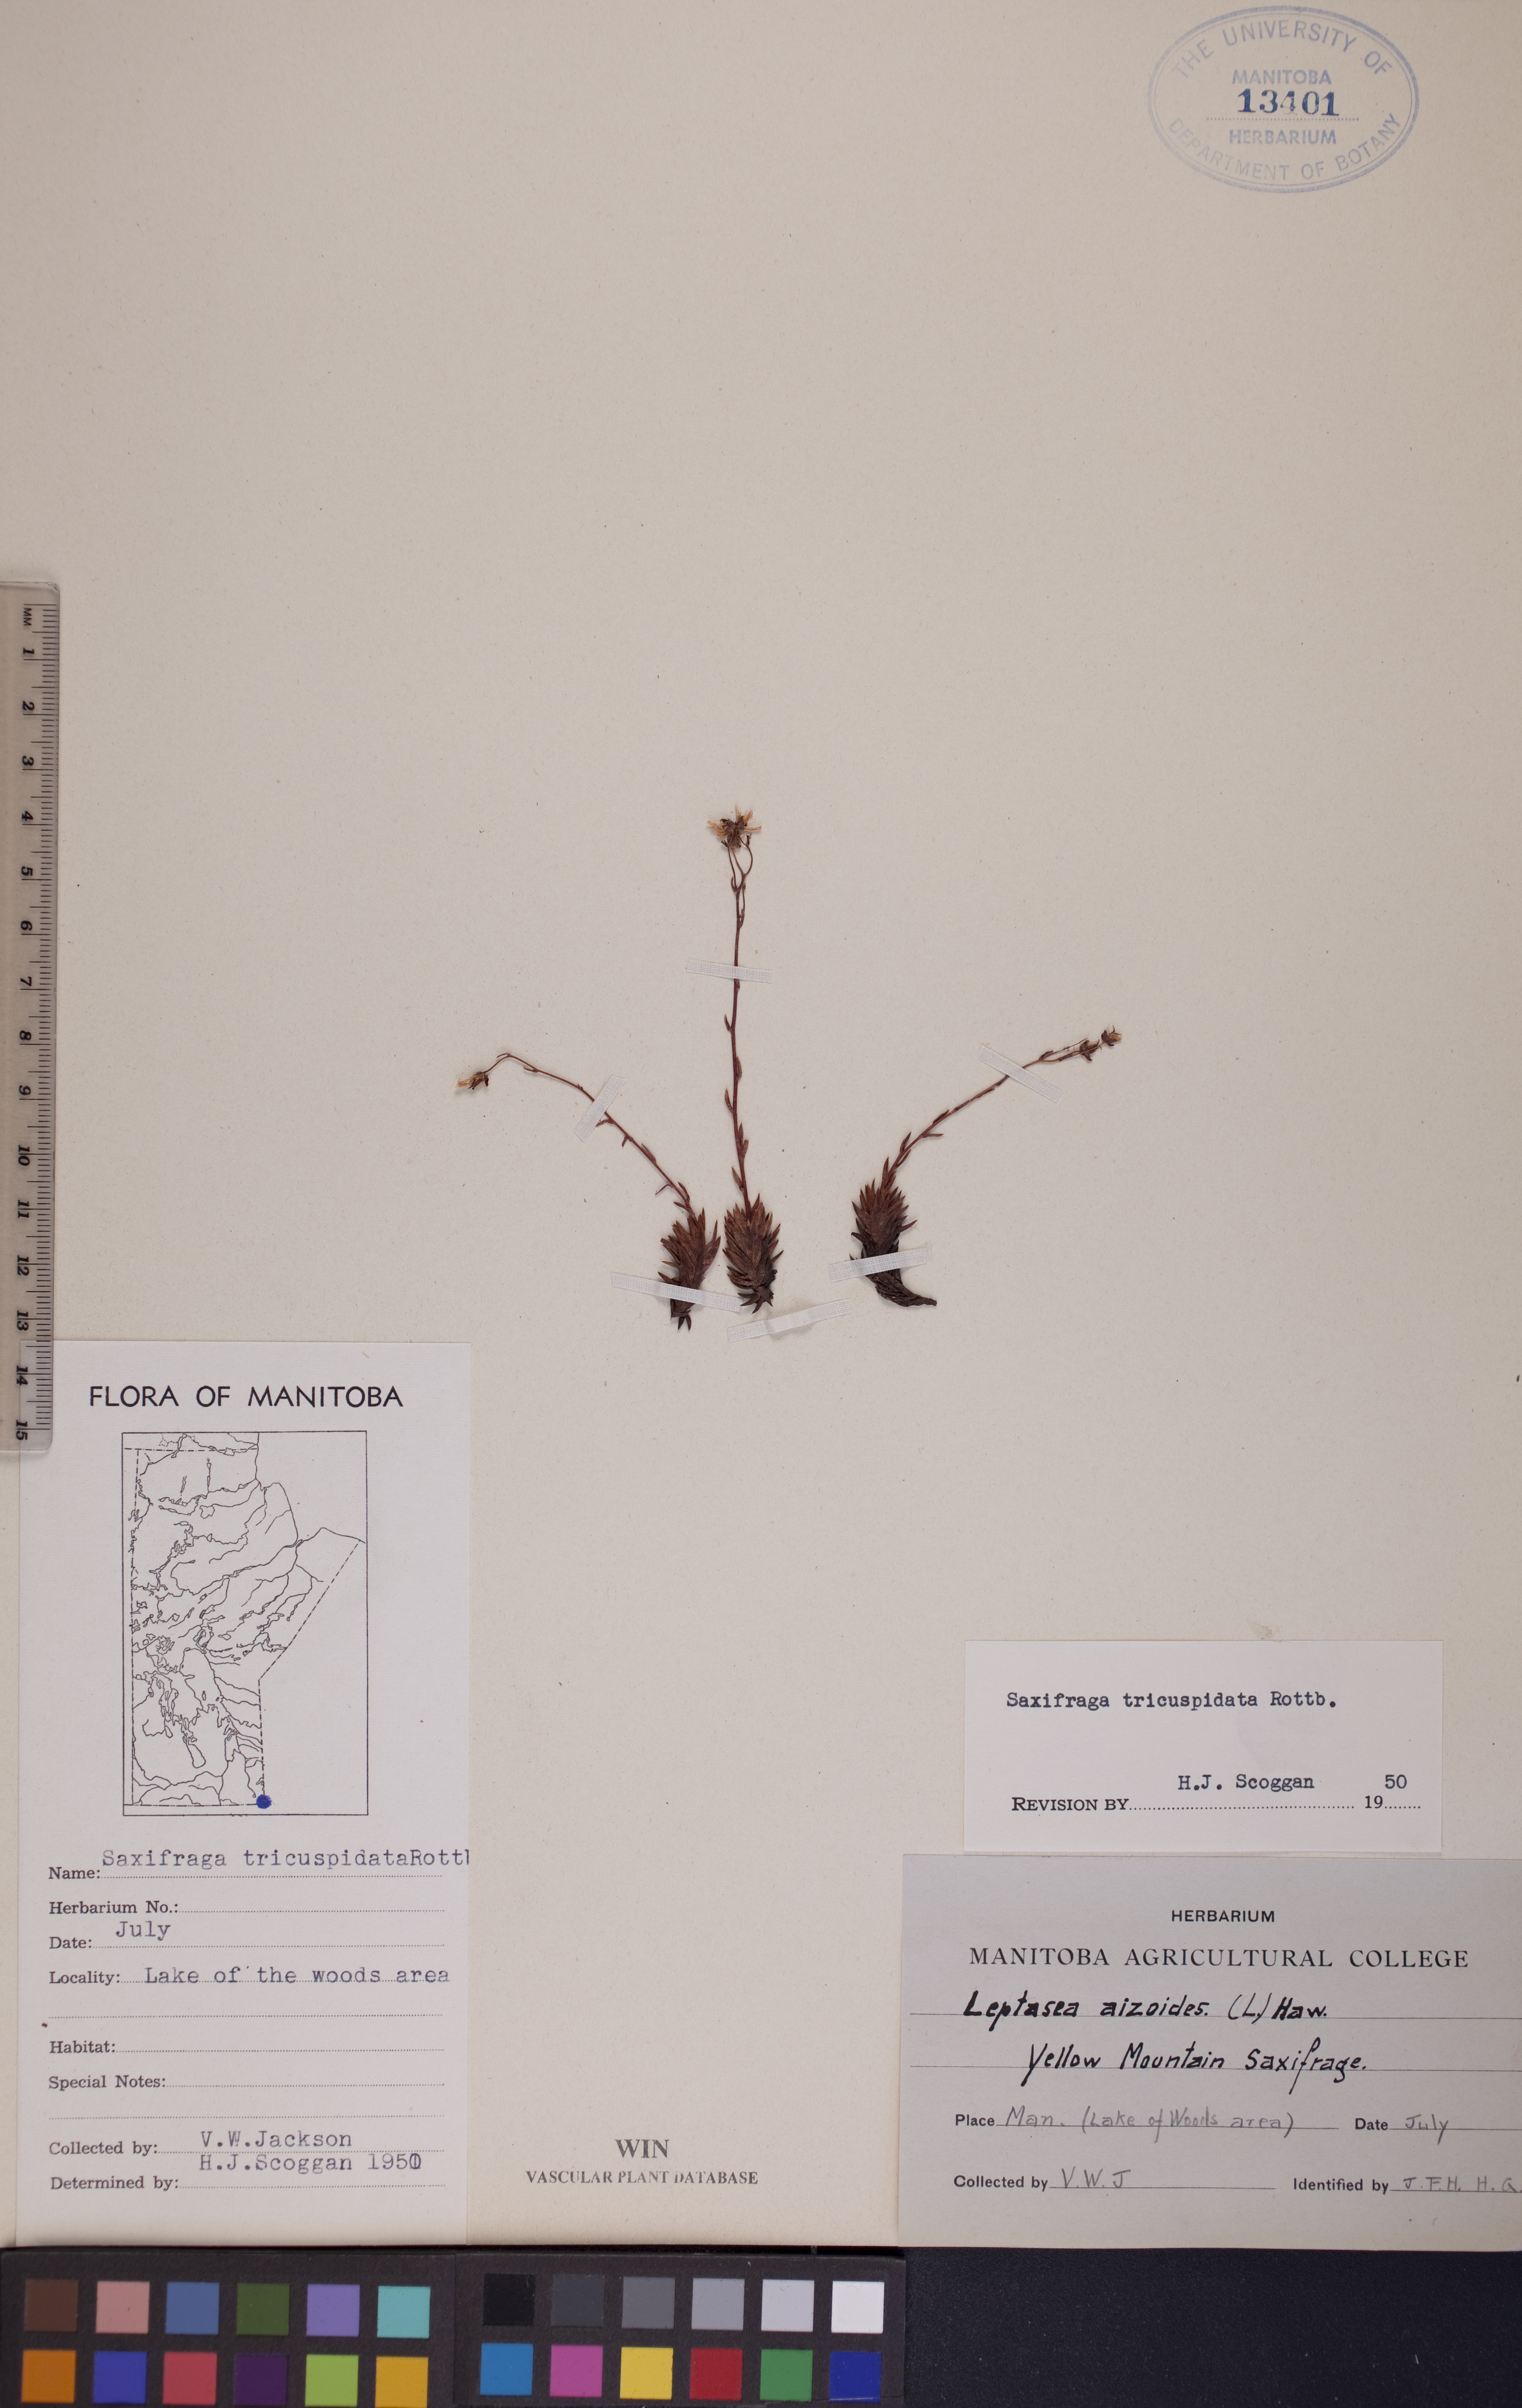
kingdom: Plantae
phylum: Tracheophyta
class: Magnoliopsida
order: Saxifragales
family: Saxifragaceae
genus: Saxifraga
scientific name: Saxifraga tricuspidata
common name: Prickly saxifrage
